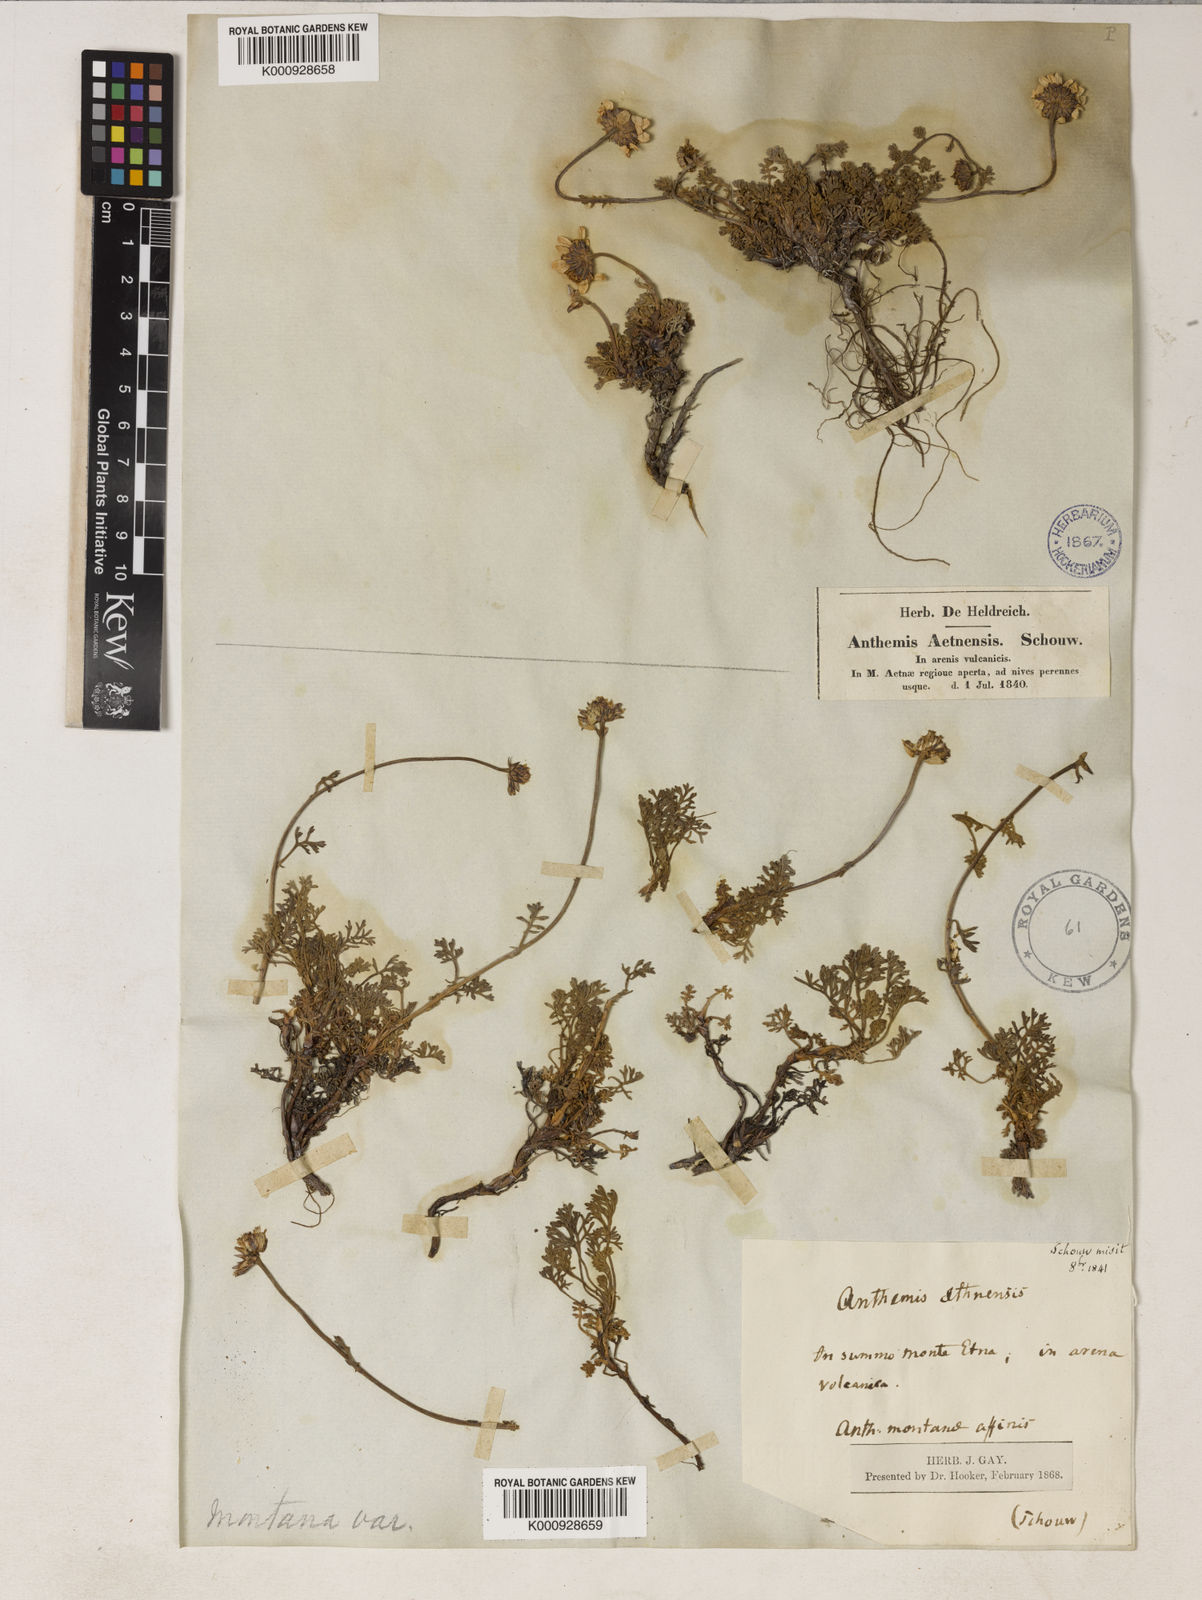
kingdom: Plantae
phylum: Tracheophyta
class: Magnoliopsida
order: Asterales
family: Asteraceae
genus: Anthemis
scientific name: Anthemis aetnensis
